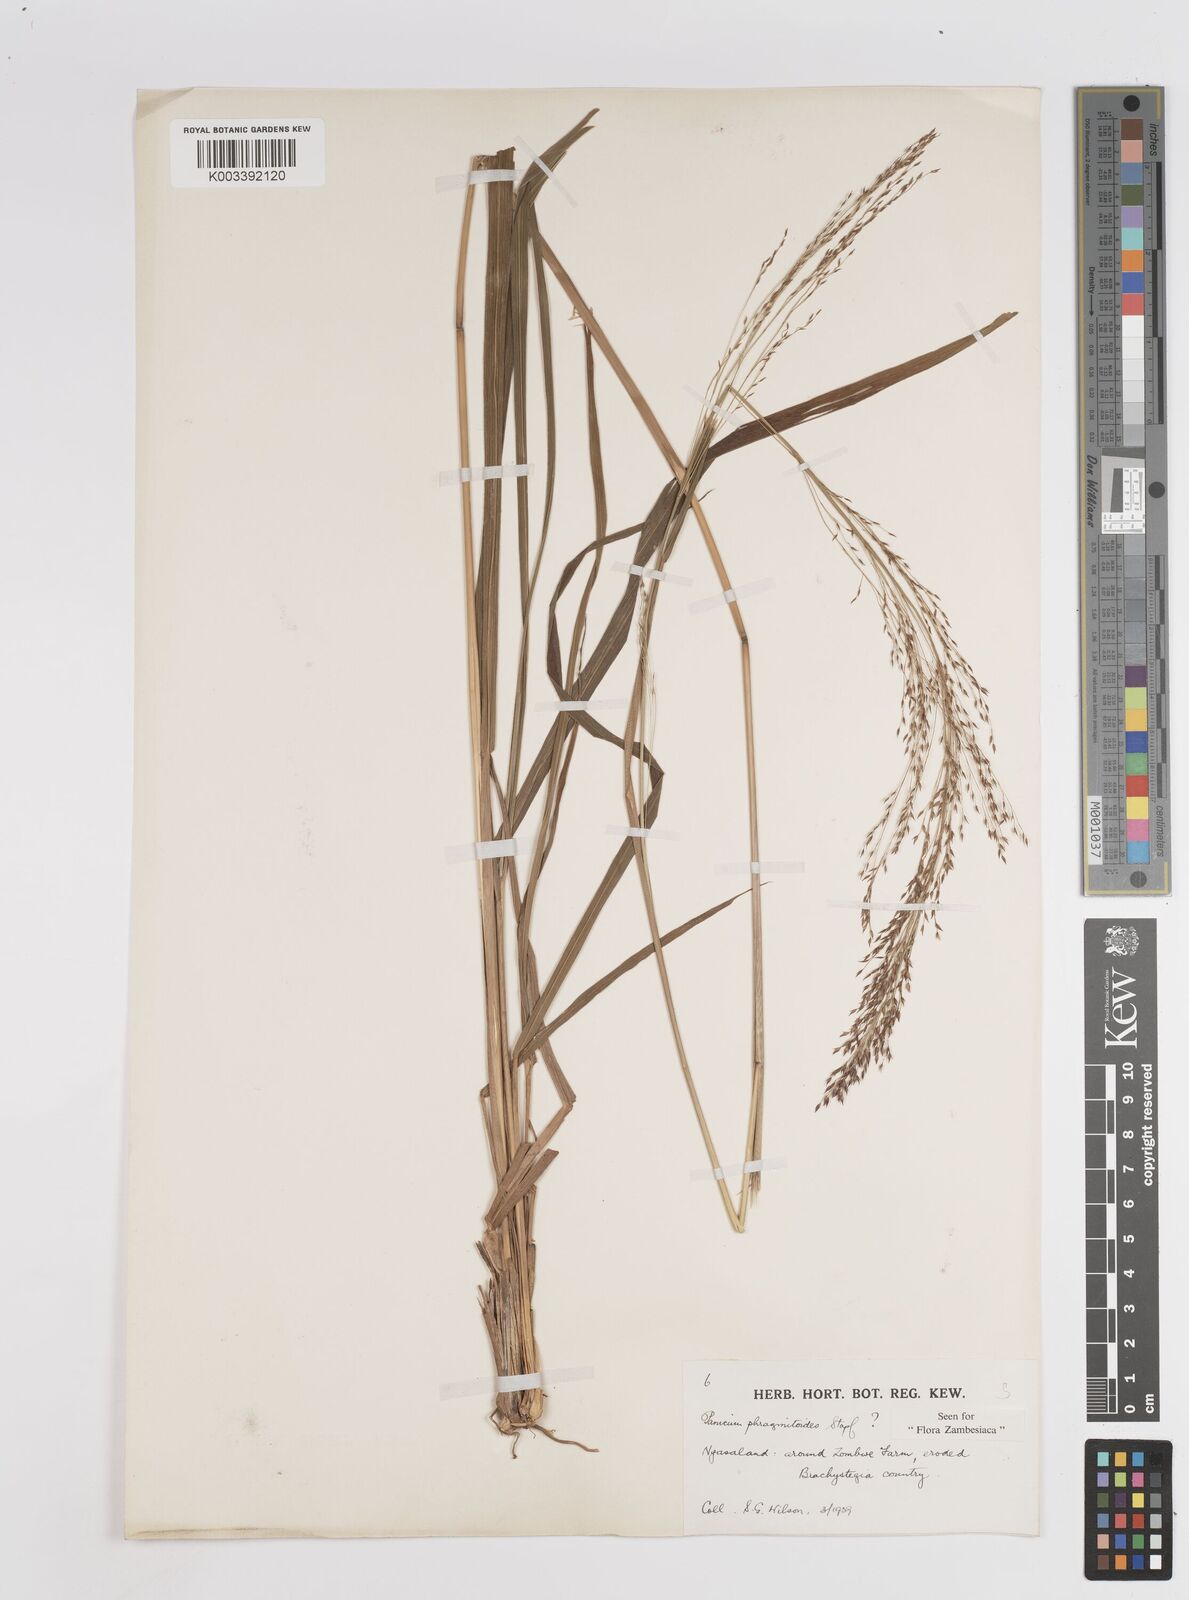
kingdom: Plantae
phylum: Tracheophyta
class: Liliopsida
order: Poales
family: Poaceae
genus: Panicum
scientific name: Panicum phragmitoides
